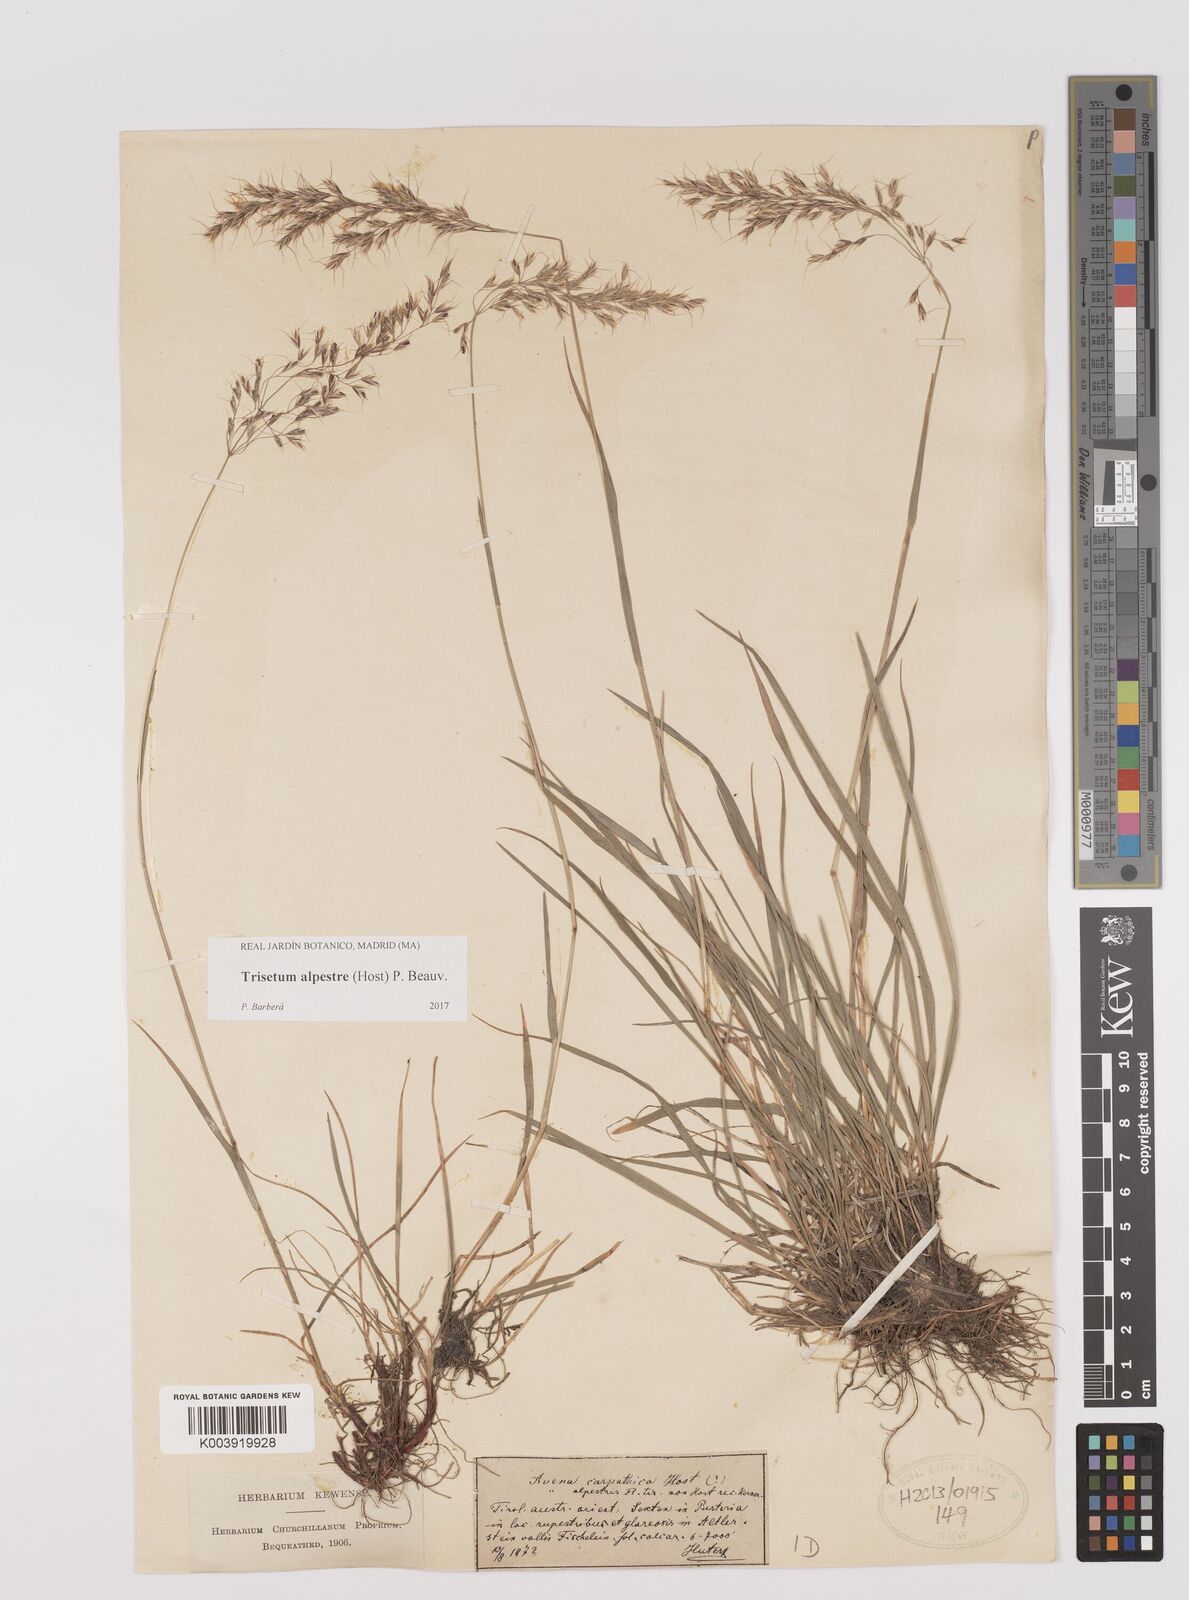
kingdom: Plantae
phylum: Tracheophyta
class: Liliopsida
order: Poales
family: Poaceae
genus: Trisetum
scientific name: Trisetum alpestre
